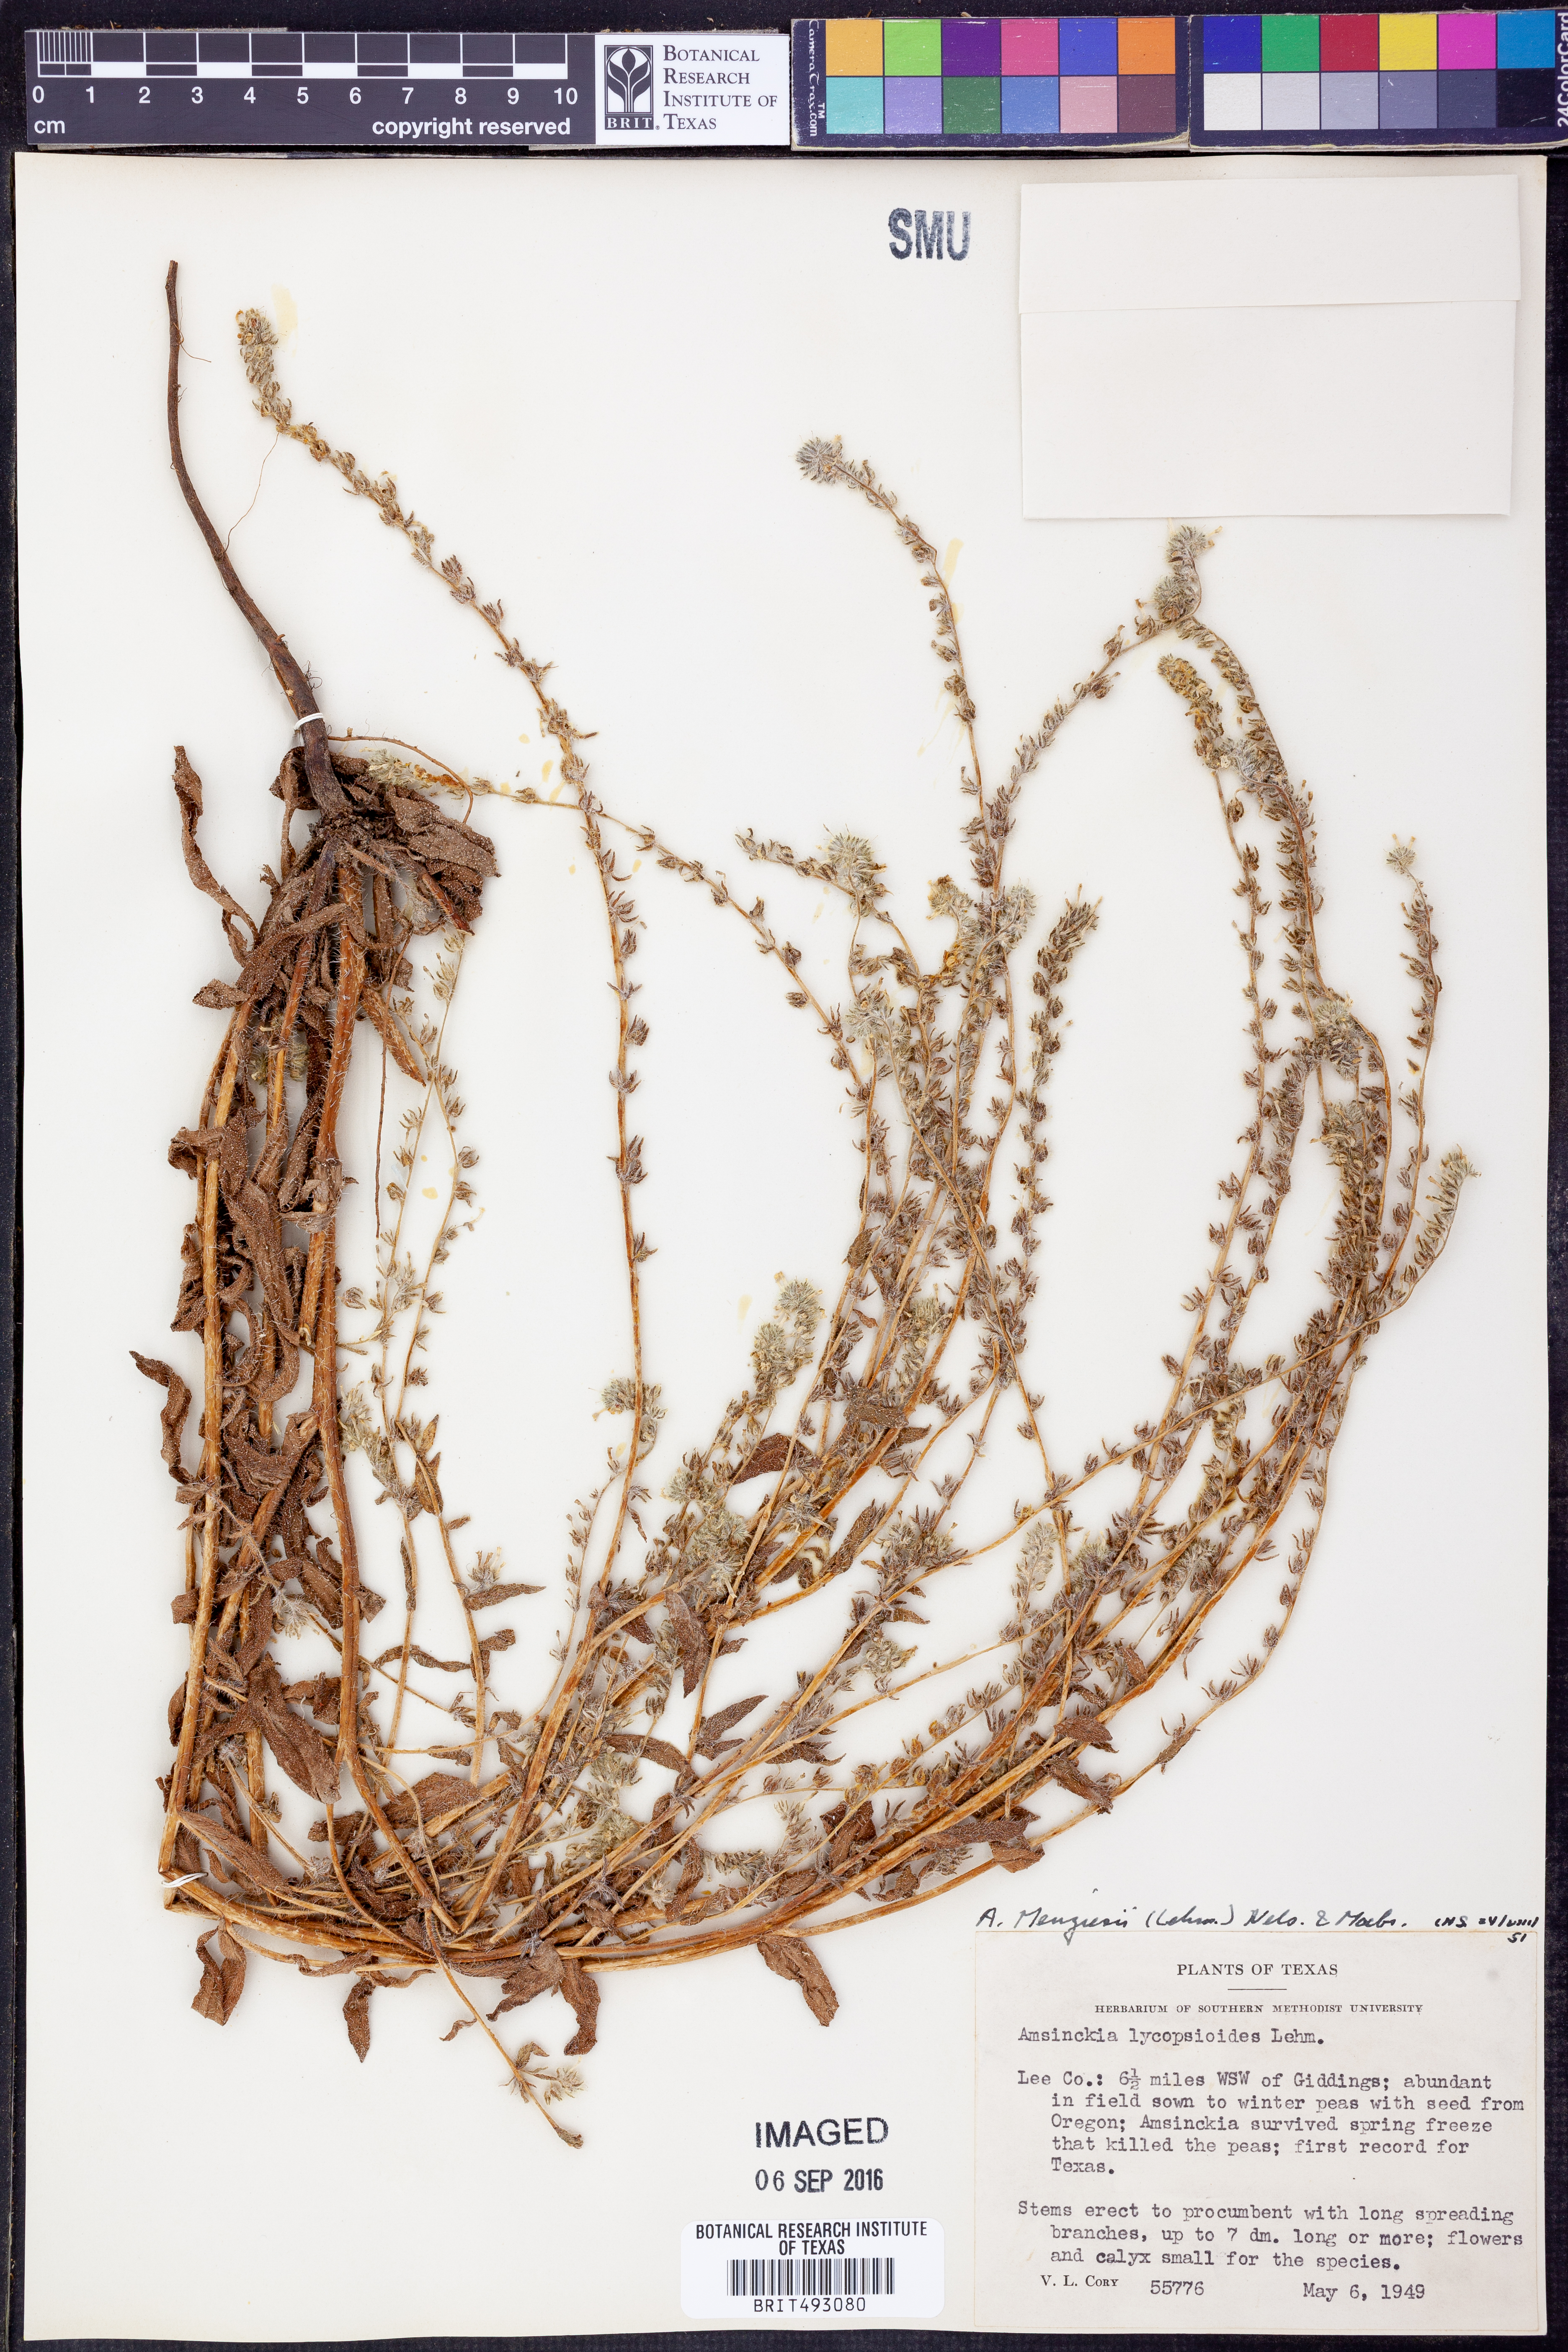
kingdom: Plantae
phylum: Tracheophyta
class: Magnoliopsida
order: Boraginales
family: Boraginaceae
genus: Amsinckia
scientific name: Amsinckia menziesii
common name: Menzies' fiddleneck
